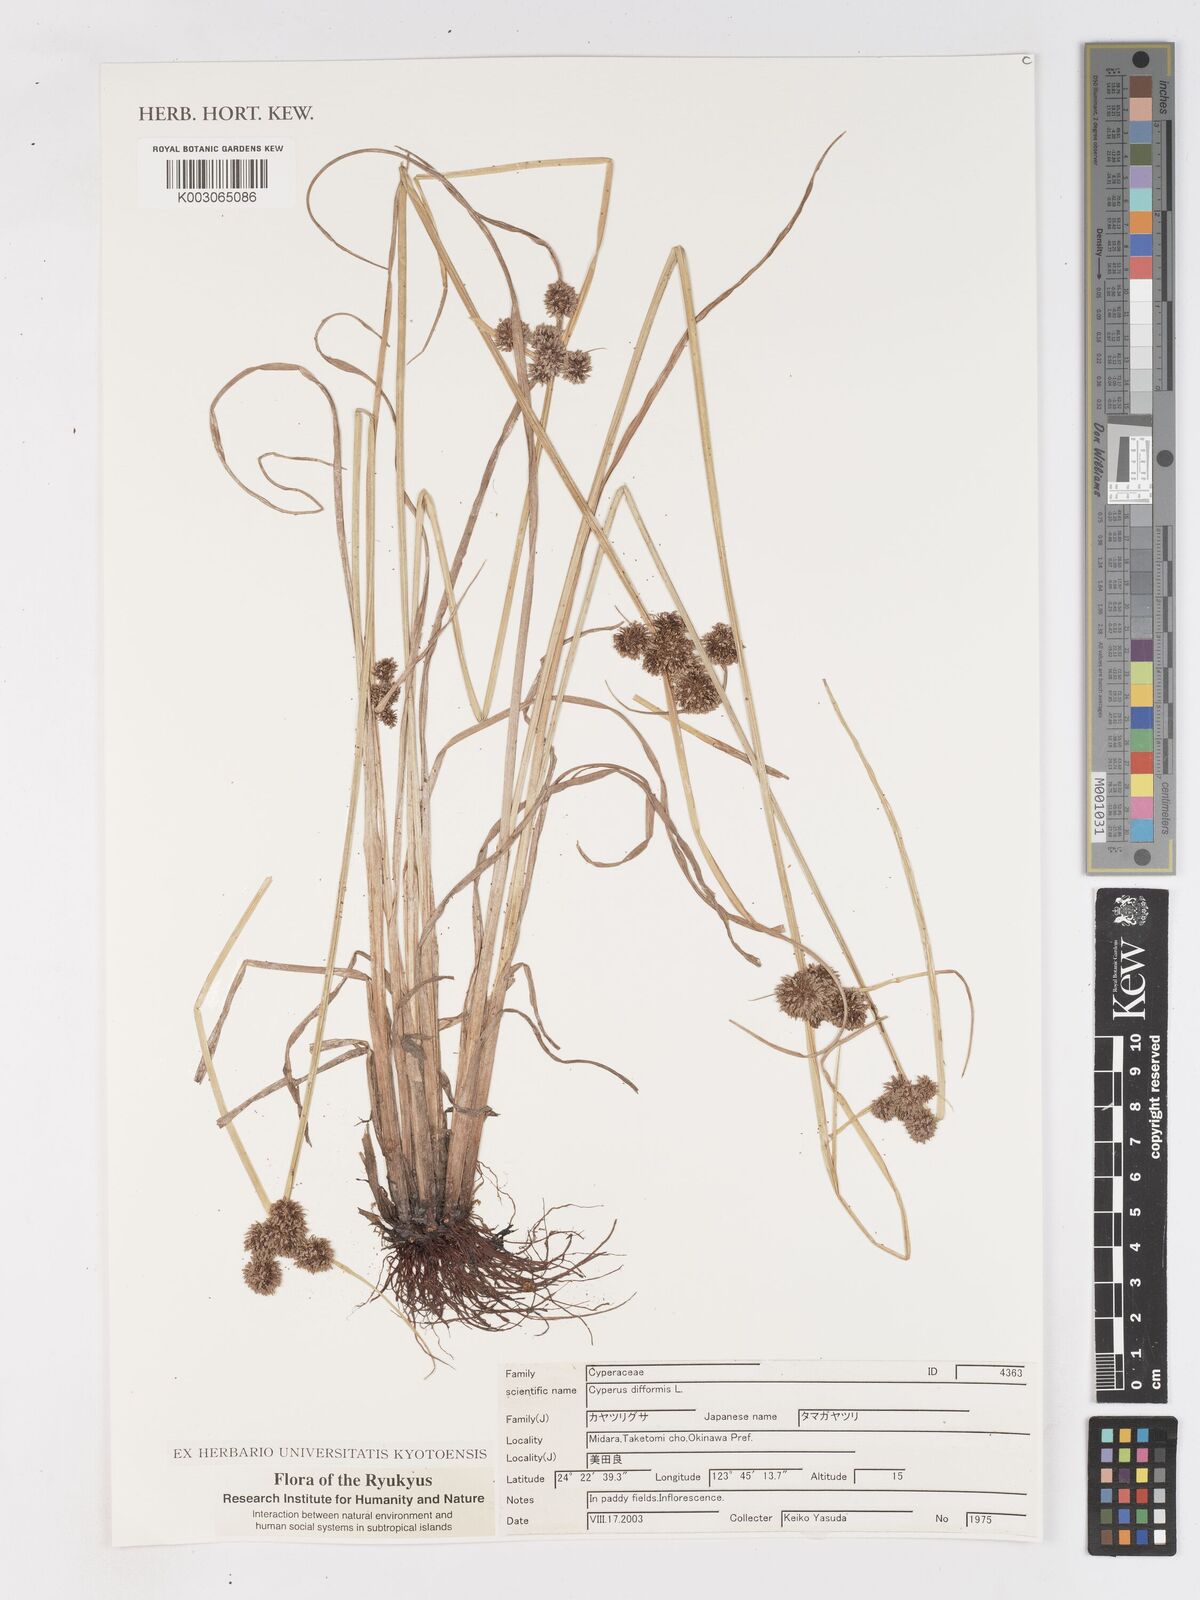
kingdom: Plantae
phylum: Tracheophyta
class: Liliopsida
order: Poales
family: Cyperaceae
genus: Cyperus
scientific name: Cyperus difformis
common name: Variable flatsedge
